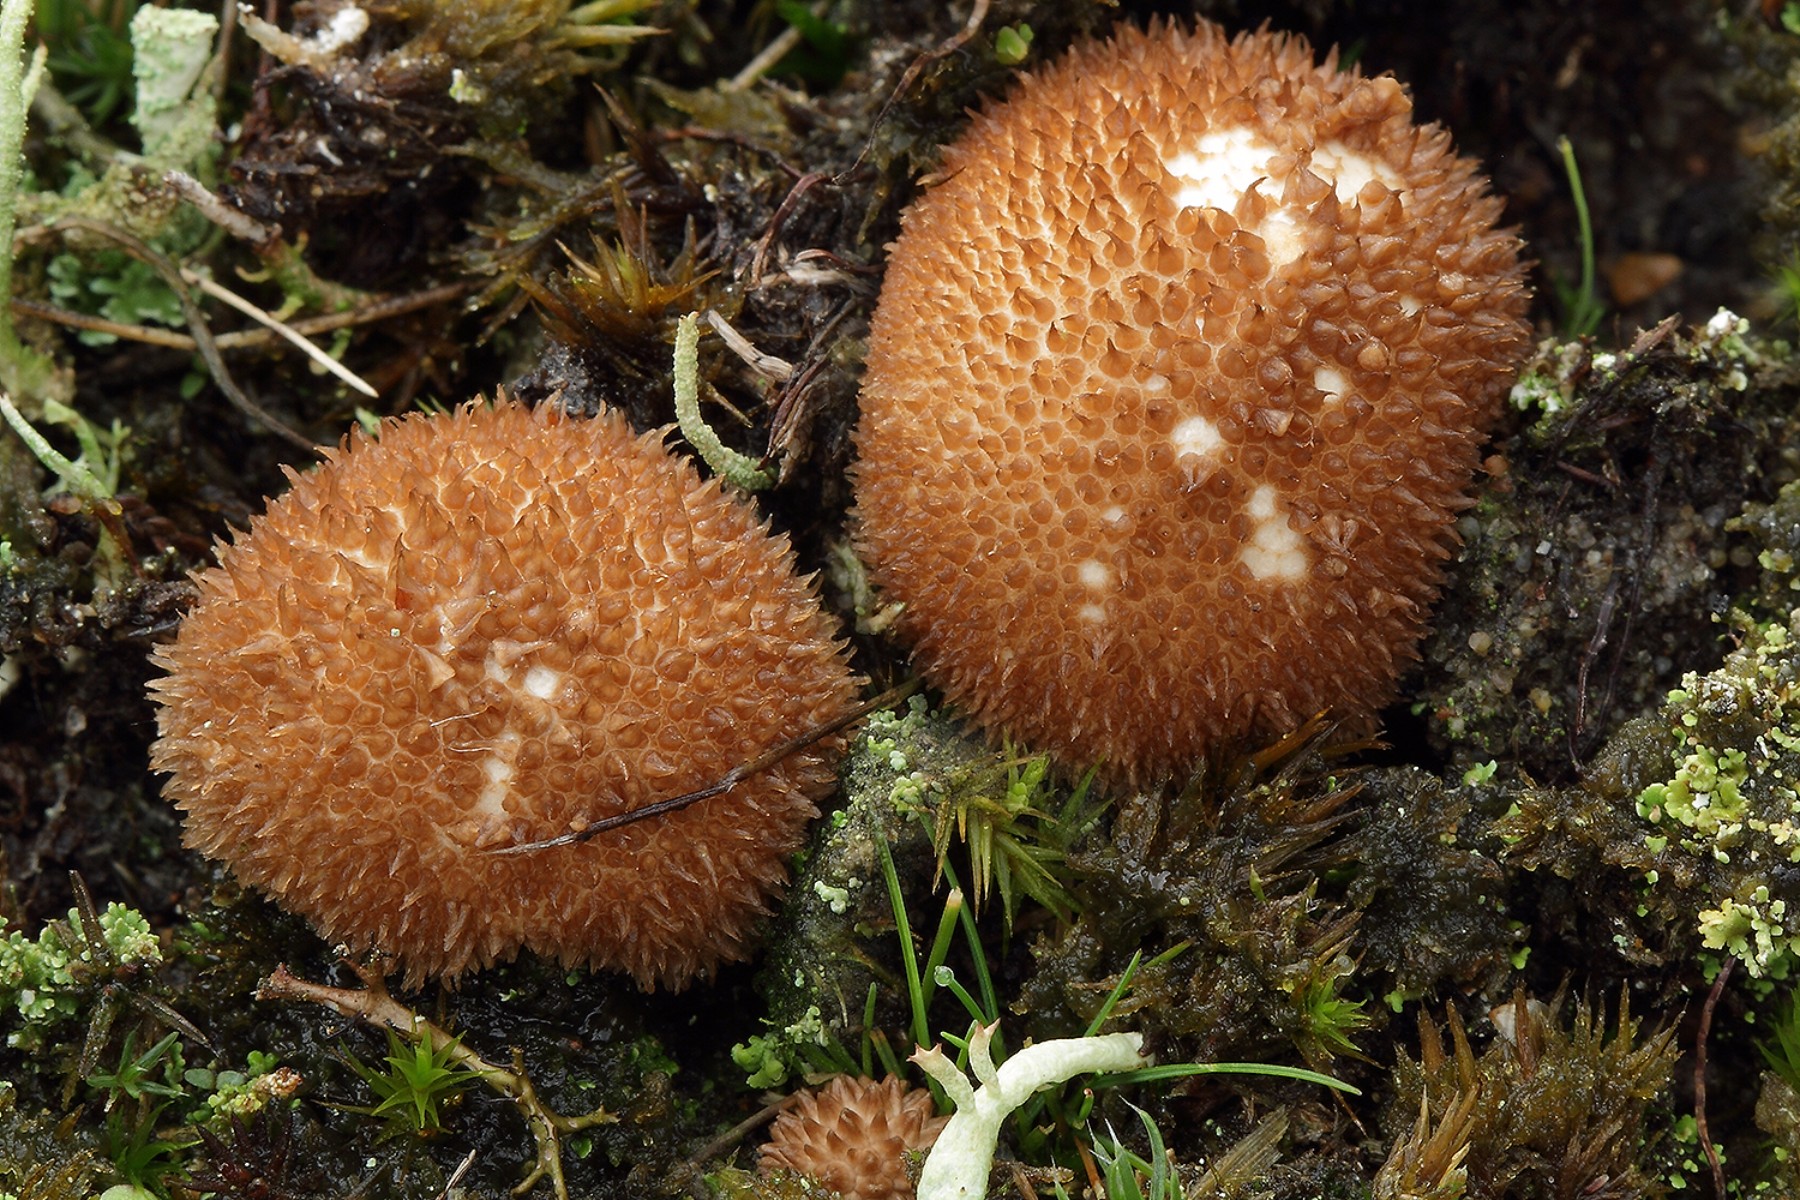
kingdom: Fungi
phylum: Basidiomycota
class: Agaricomycetes
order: Agaricales
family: Lycoperdaceae
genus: Lycoperdon
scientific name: Lycoperdon umbrinum
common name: umbrabrun støvbold
